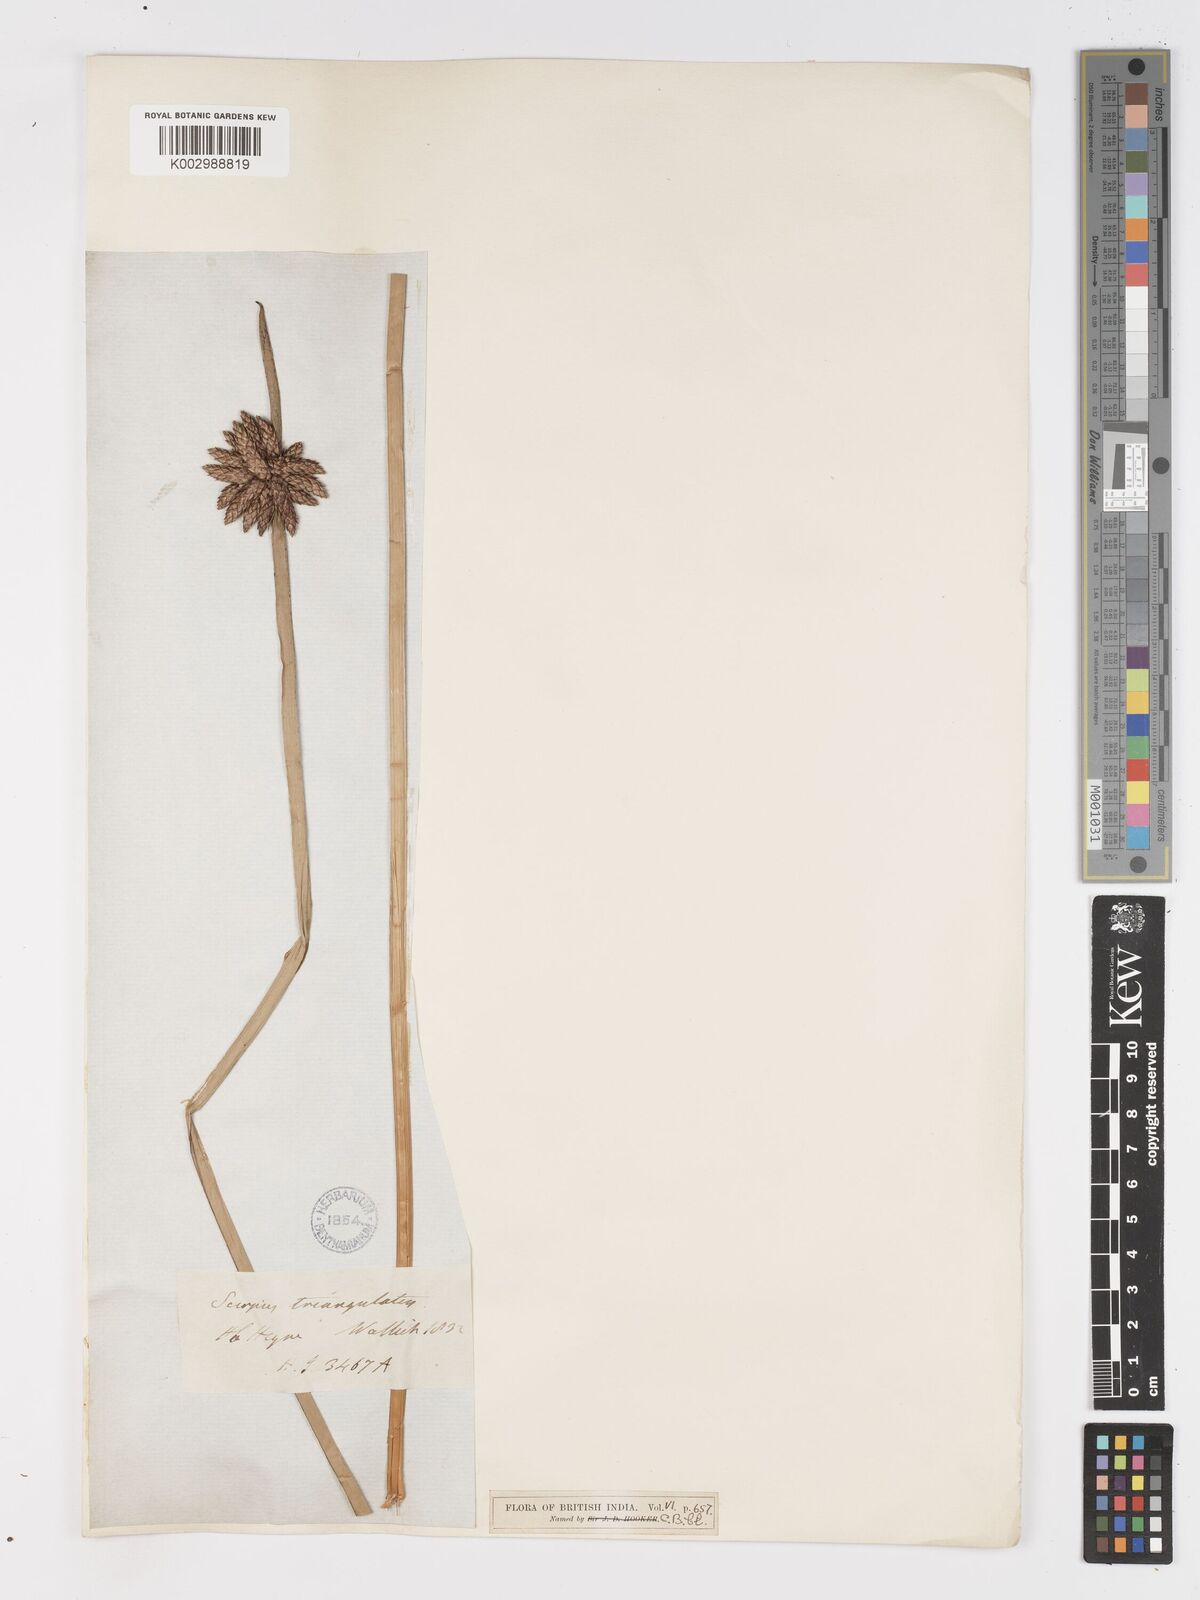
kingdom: Plantae
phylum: Tracheophyta
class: Liliopsida
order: Poales
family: Cyperaceae
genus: Schoenoplectiella
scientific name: Schoenoplectiella mucronata
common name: Bog bulrush
